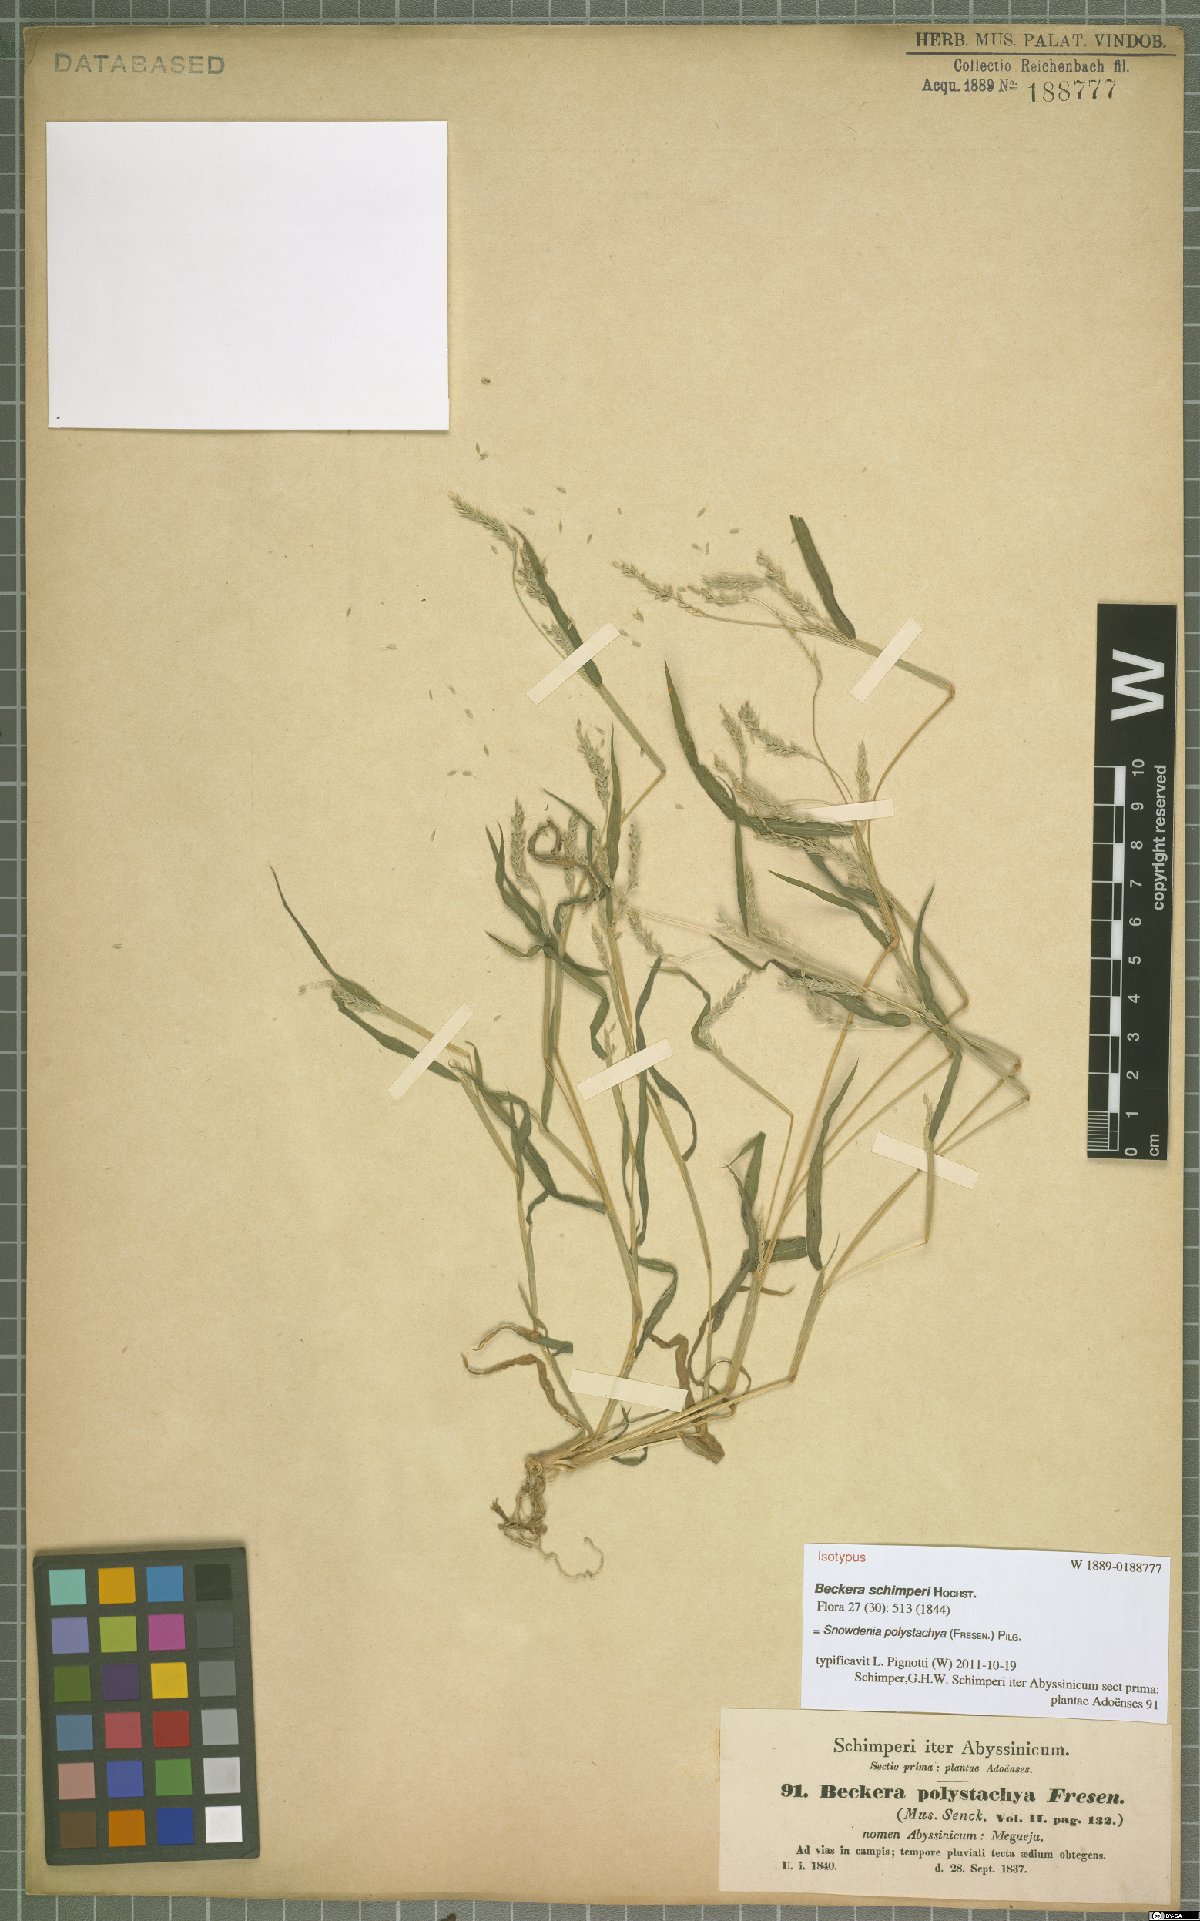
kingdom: Plantae
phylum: Tracheophyta
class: Liliopsida
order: Poales
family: Poaceae
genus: Snowdenia
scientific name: Snowdenia polystachya
